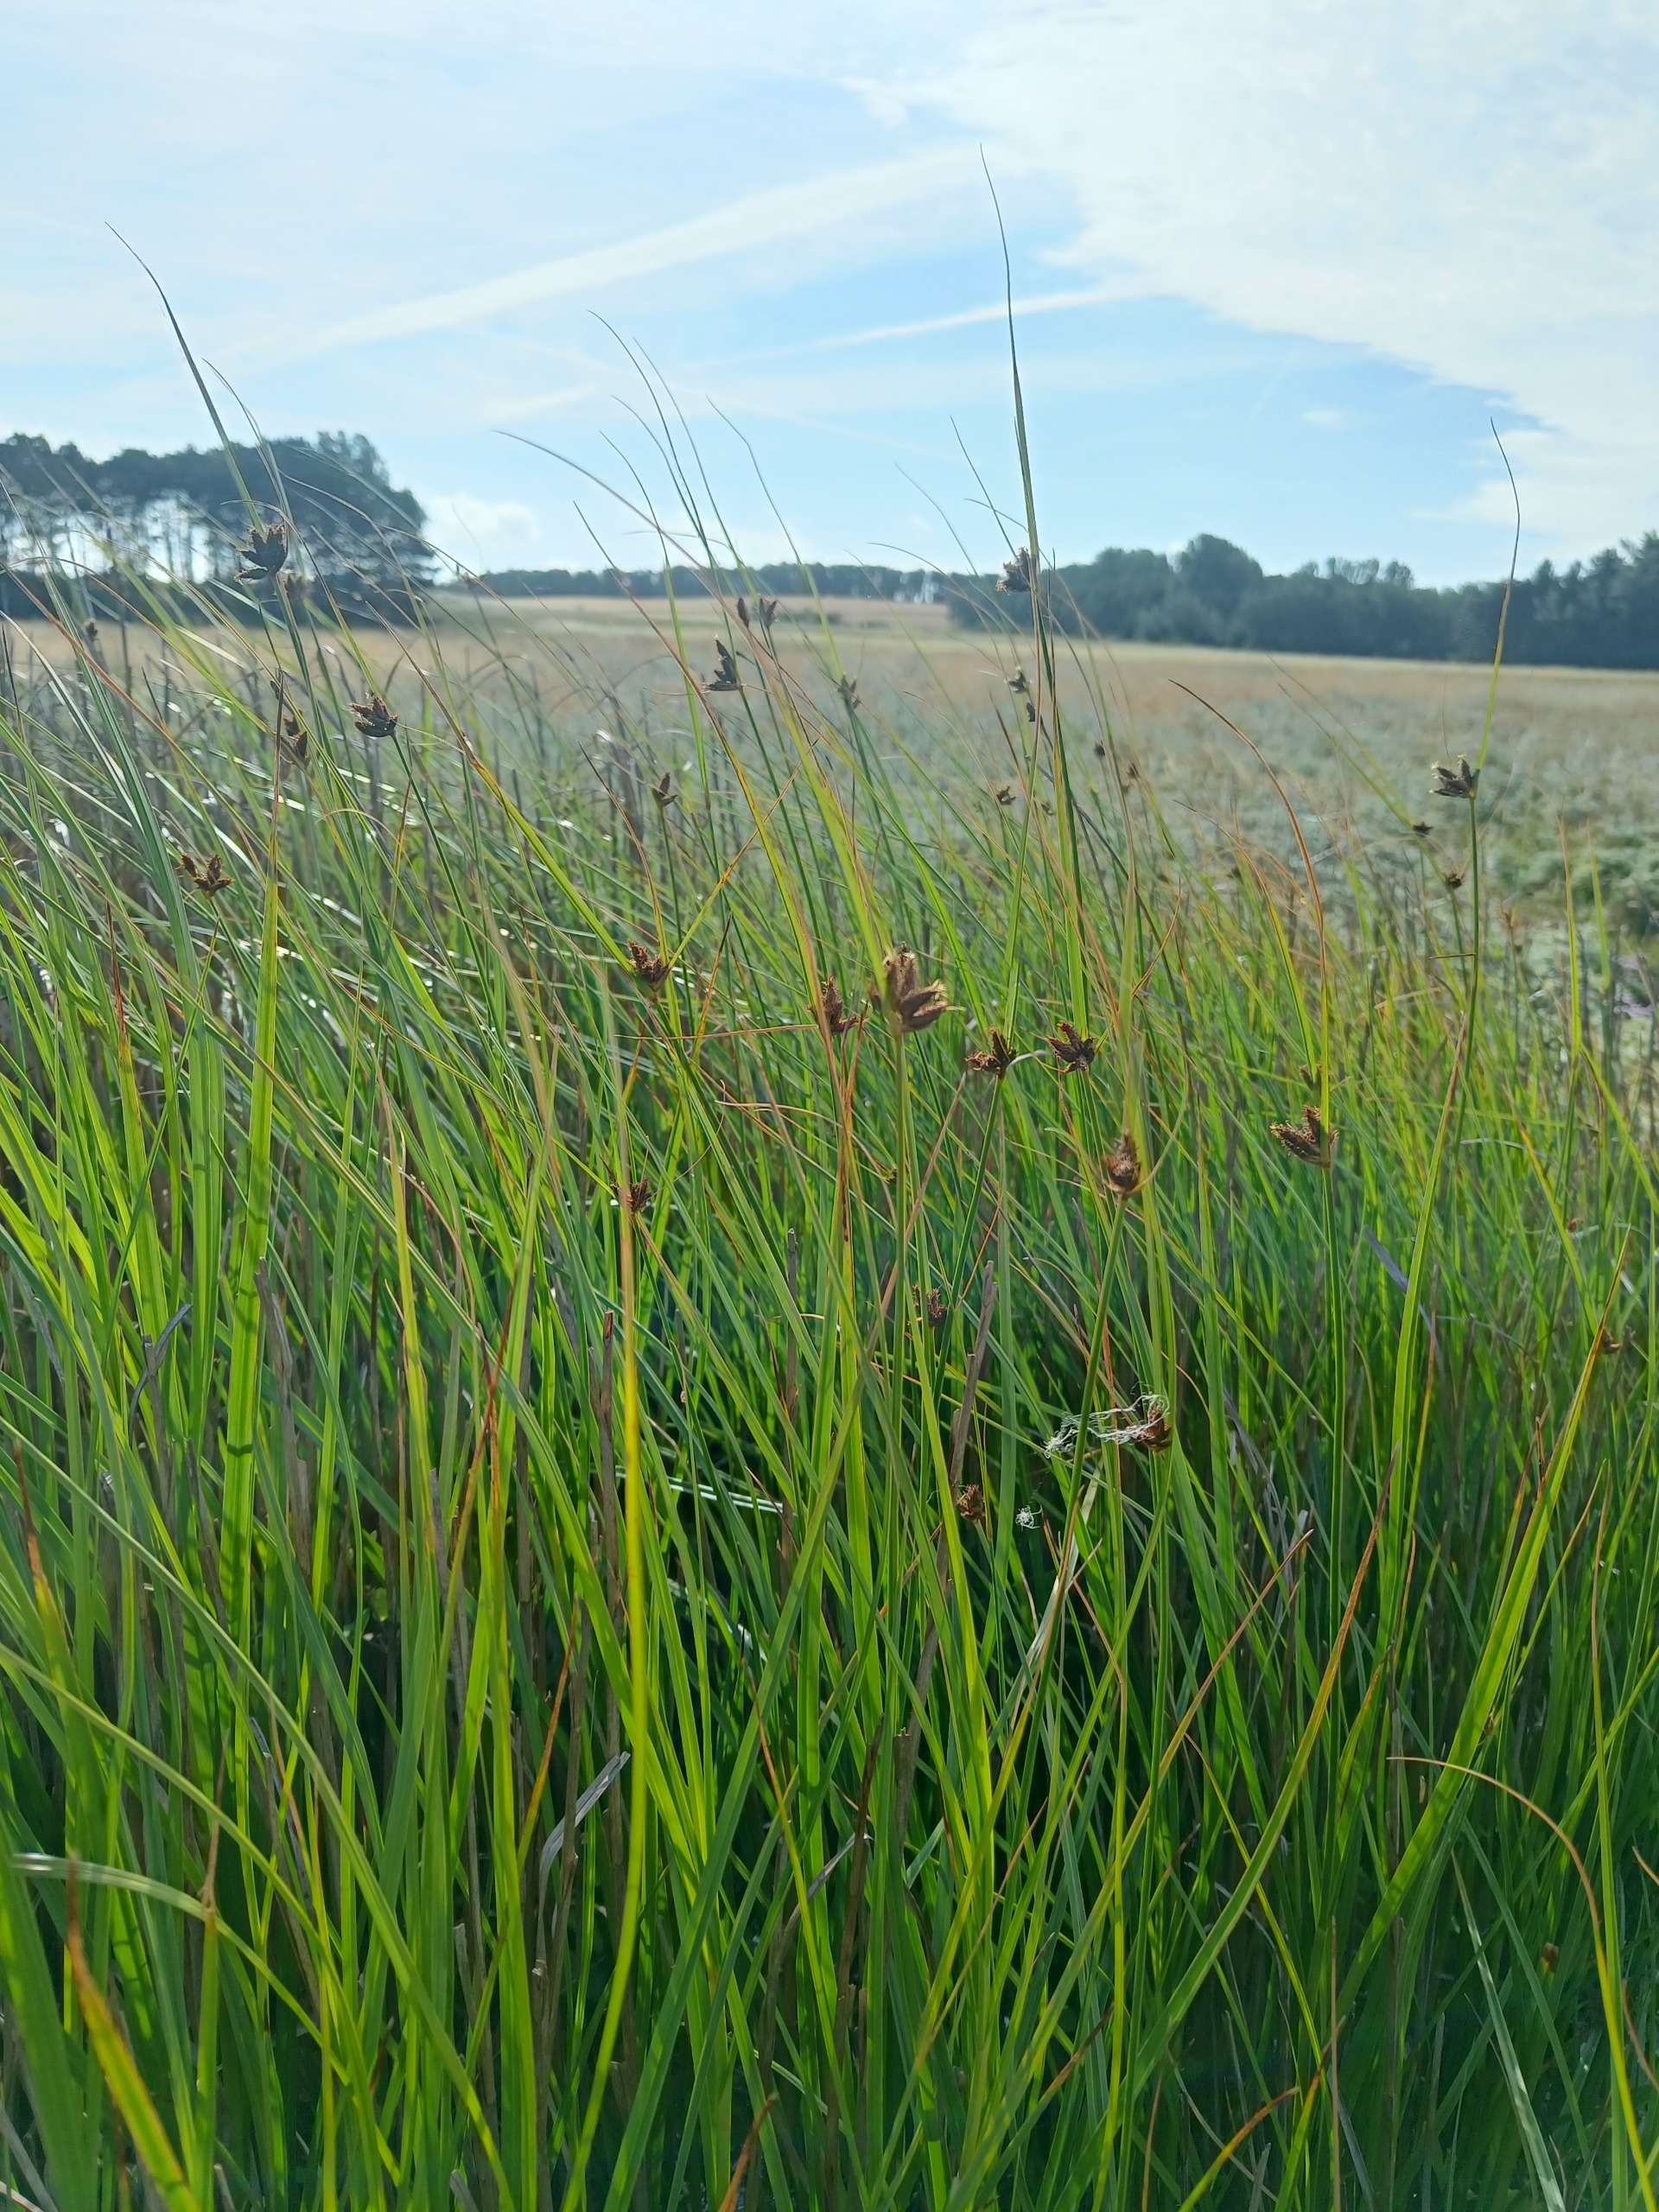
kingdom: Plantae
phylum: Tracheophyta
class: Liliopsida
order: Poales
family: Cyperaceae
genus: Bolboschoenus
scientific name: Bolboschoenus maritimus
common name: Strand-kogleaks
